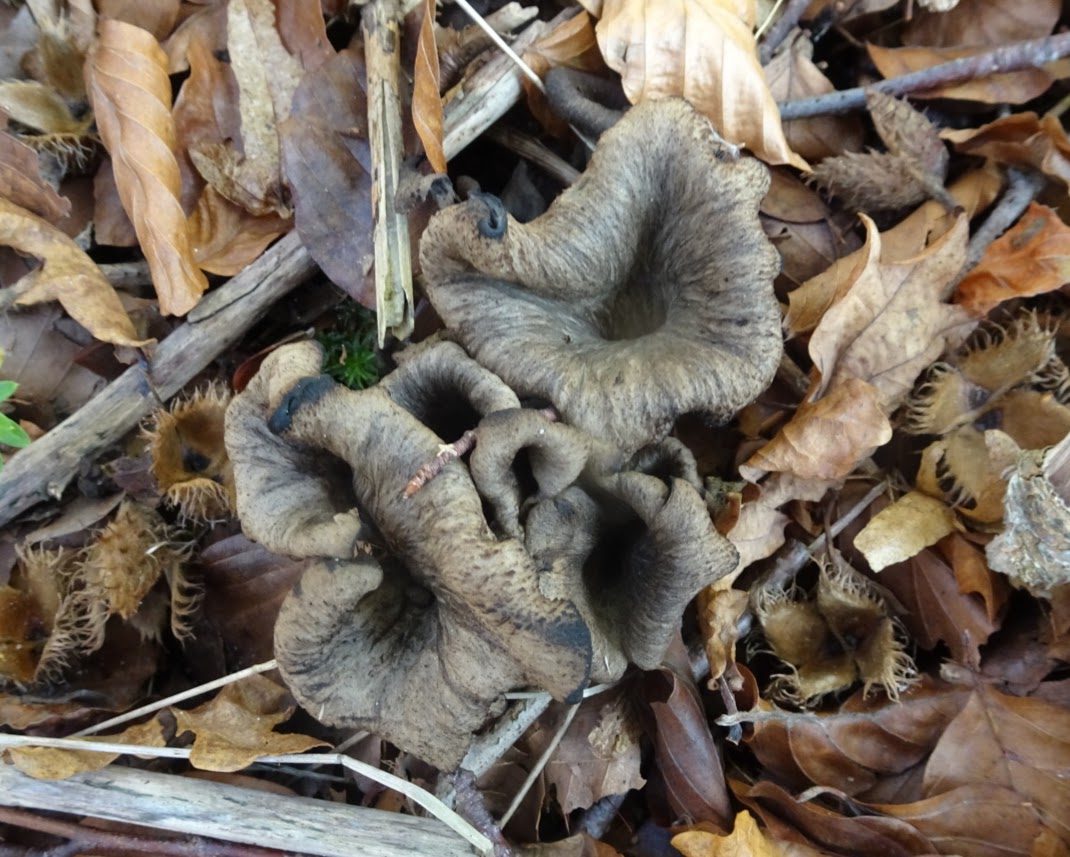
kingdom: Fungi
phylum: Basidiomycota
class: Agaricomycetes
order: Cantharellales
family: Hydnaceae
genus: Craterellus
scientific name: Craterellus cornucopioides
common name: trompetsvamp
